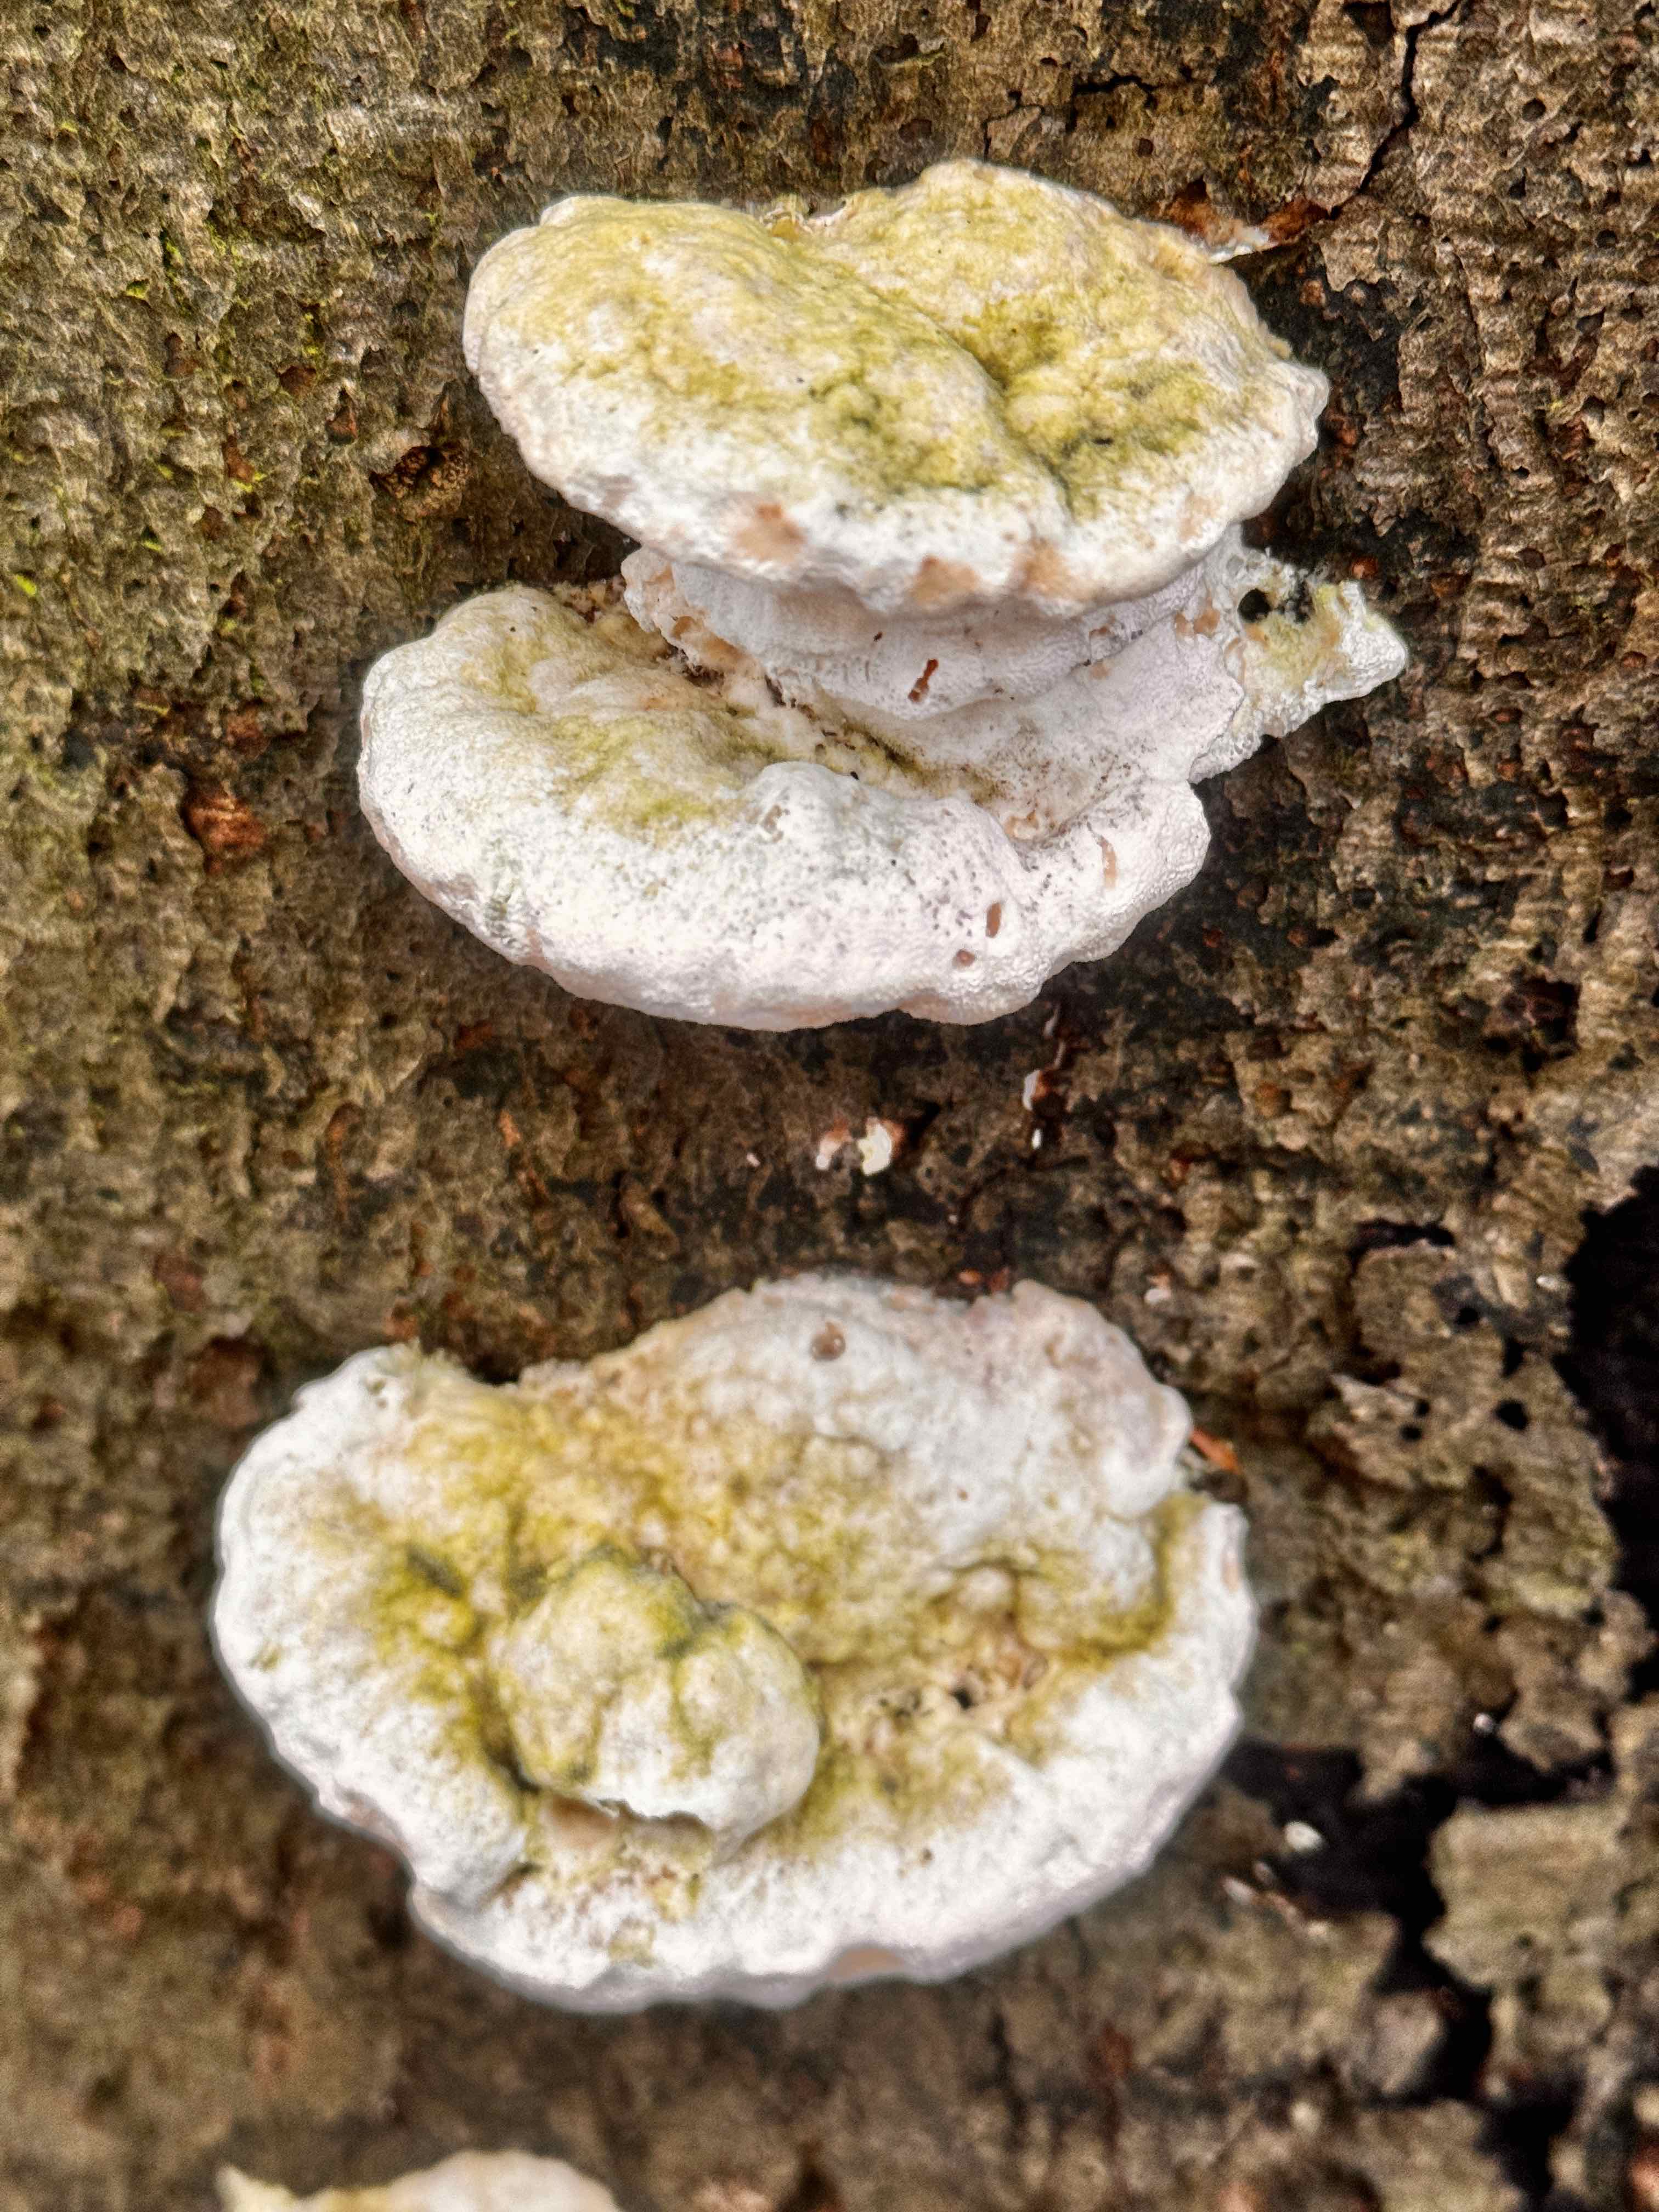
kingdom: Fungi
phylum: Basidiomycota
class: Agaricomycetes
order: Polyporales
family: Polyporaceae
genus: Trametes
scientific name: Trametes gibbosa
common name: puklet læderporesvamp
